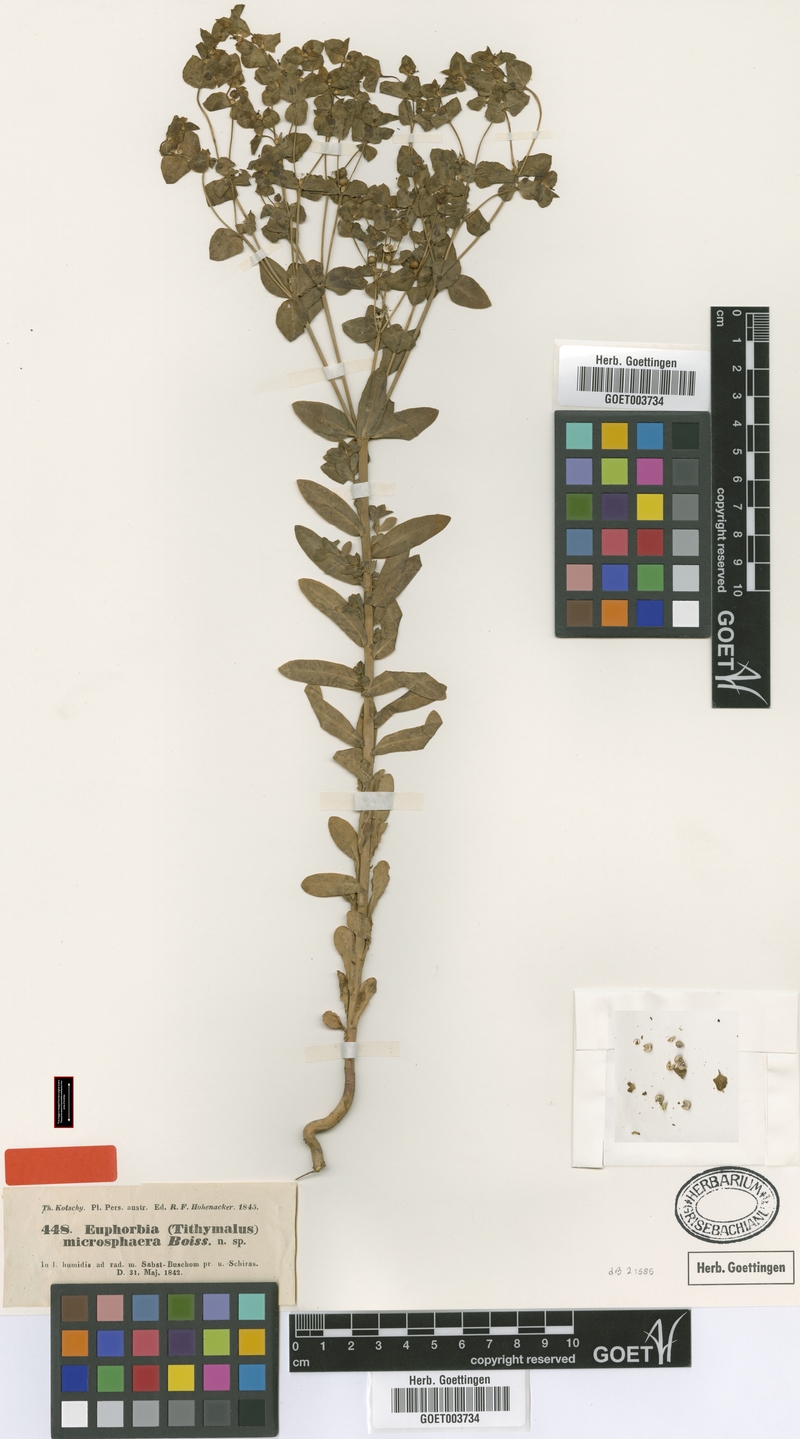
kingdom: Plantae
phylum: Tracheophyta
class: Magnoliopsida
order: Malpighiales
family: Euphorbiaceae
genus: Euphorbia
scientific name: Euphorbia microsphaera
